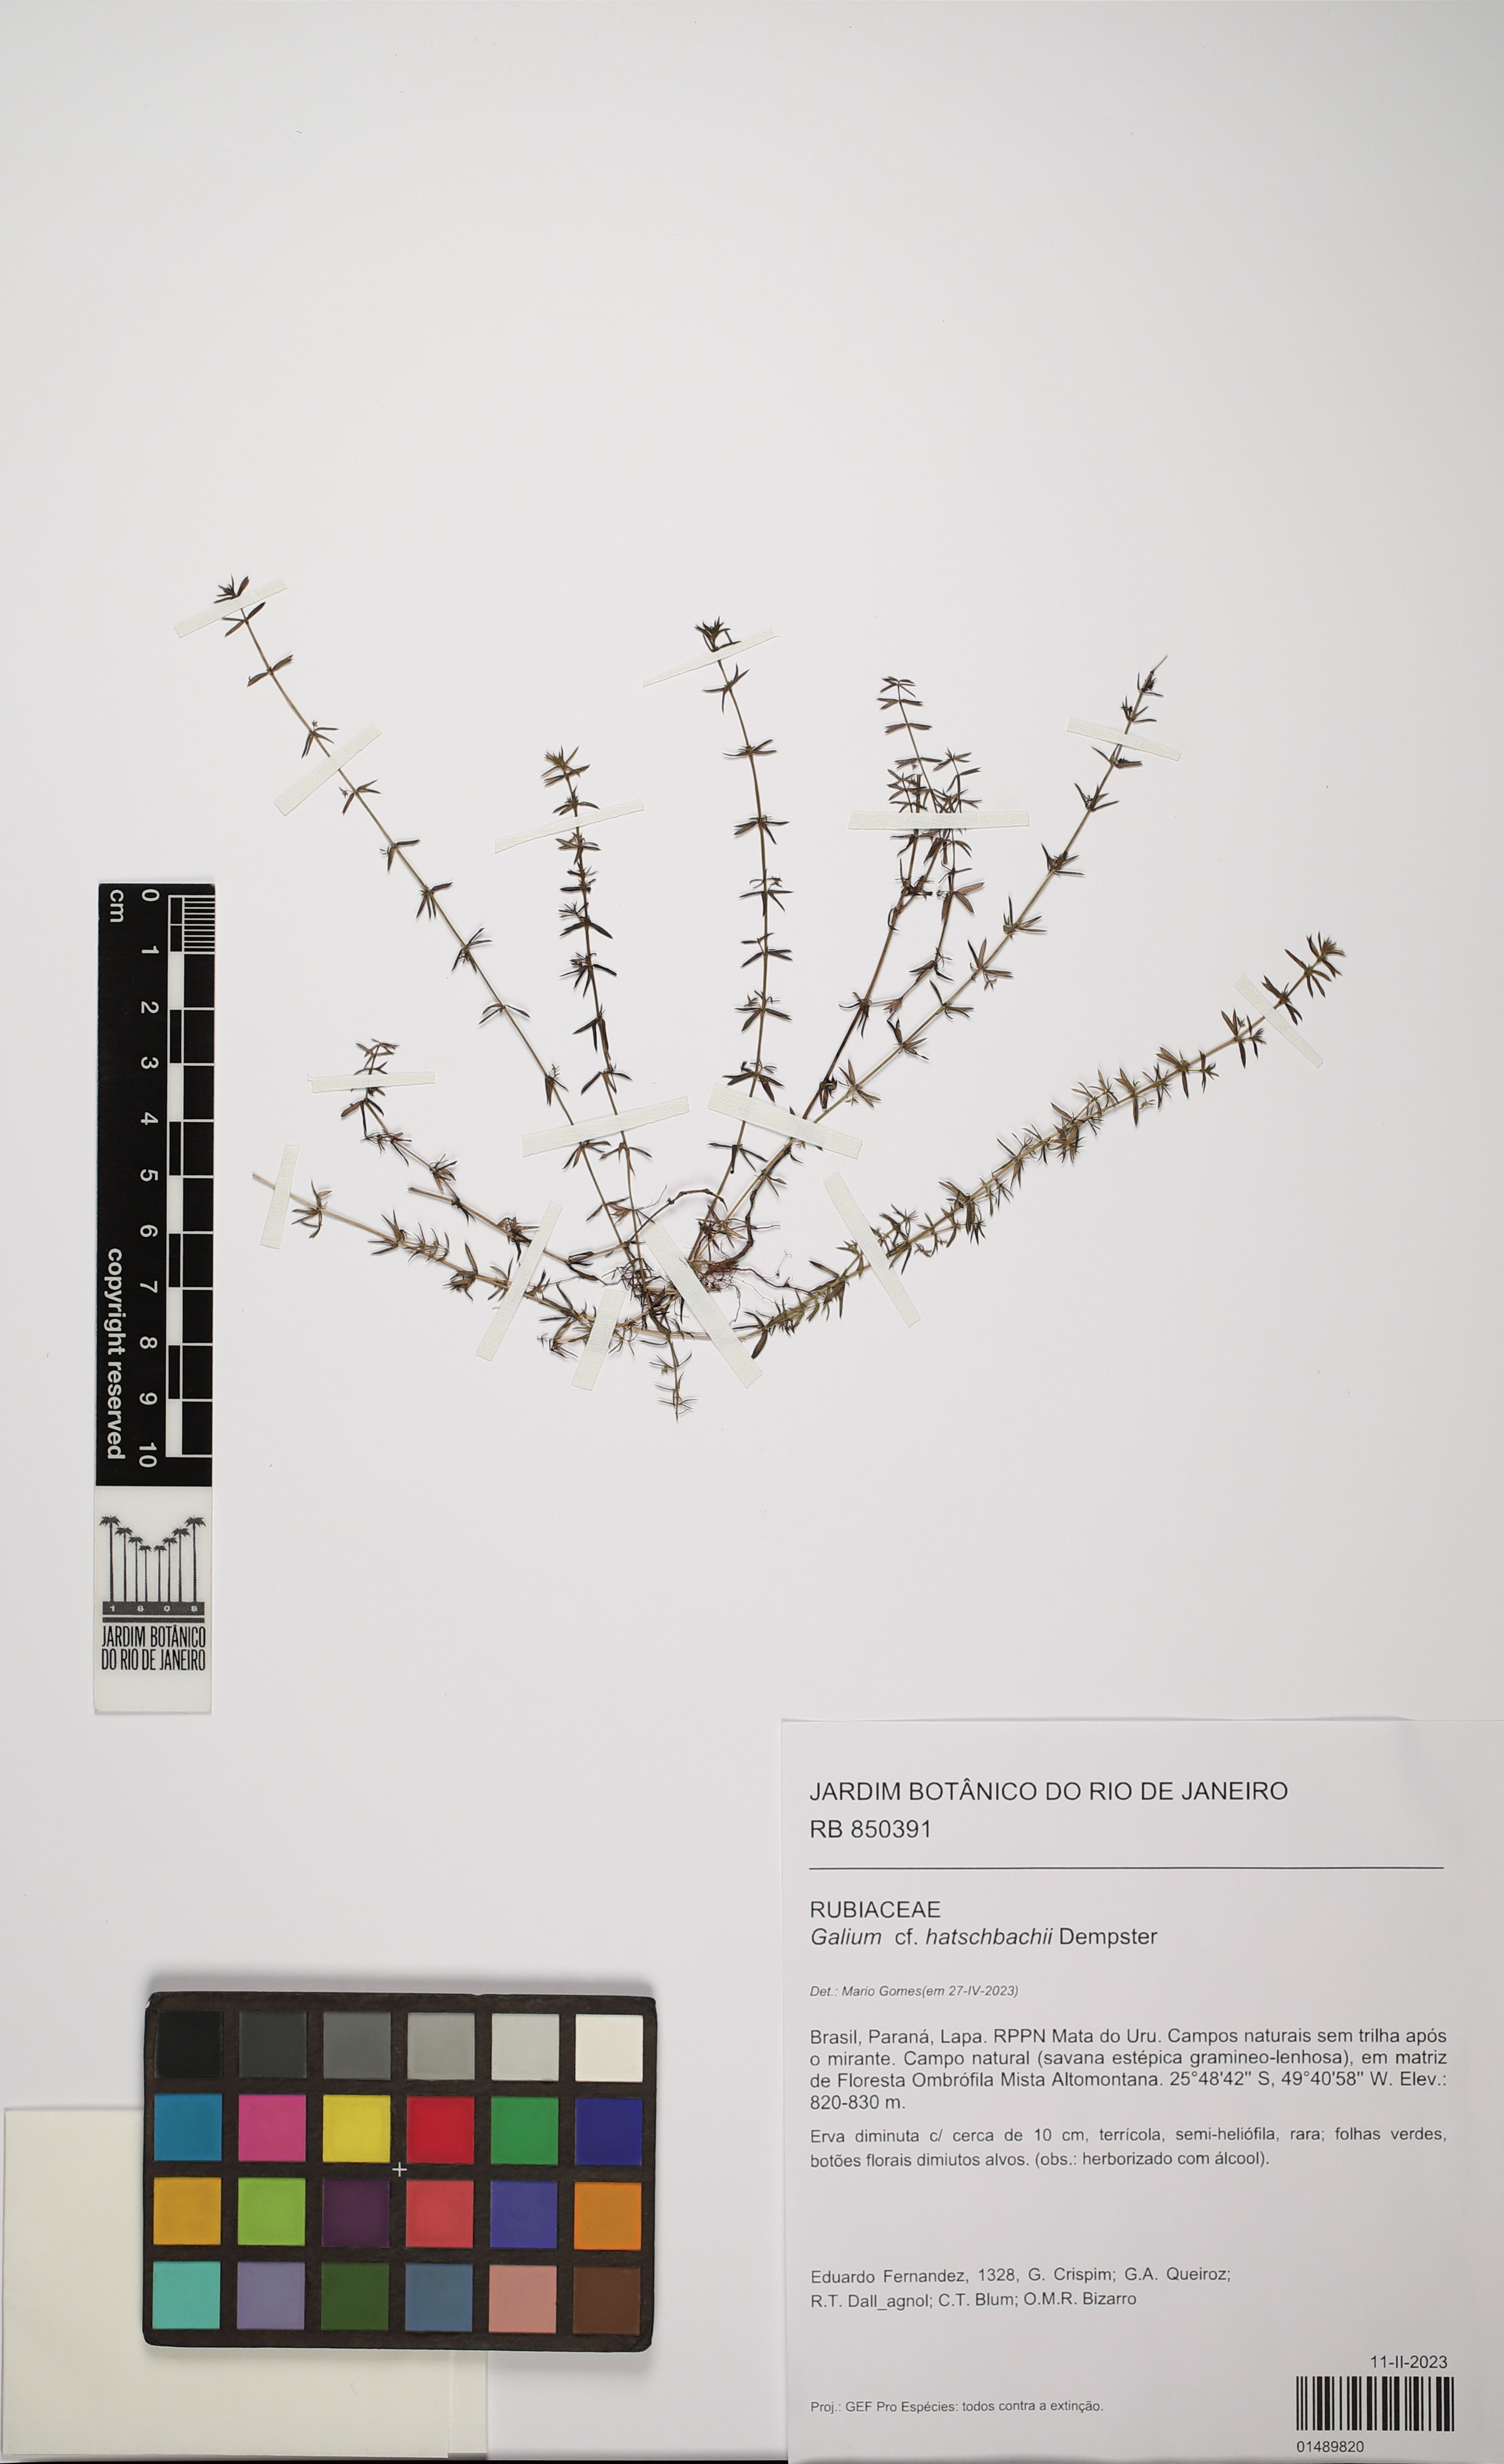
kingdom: Plantae
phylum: Tracheophyta
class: Magnoliopsida
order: Gentianales
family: Rubiaceae
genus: Galium
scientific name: Galium hatschbachii
